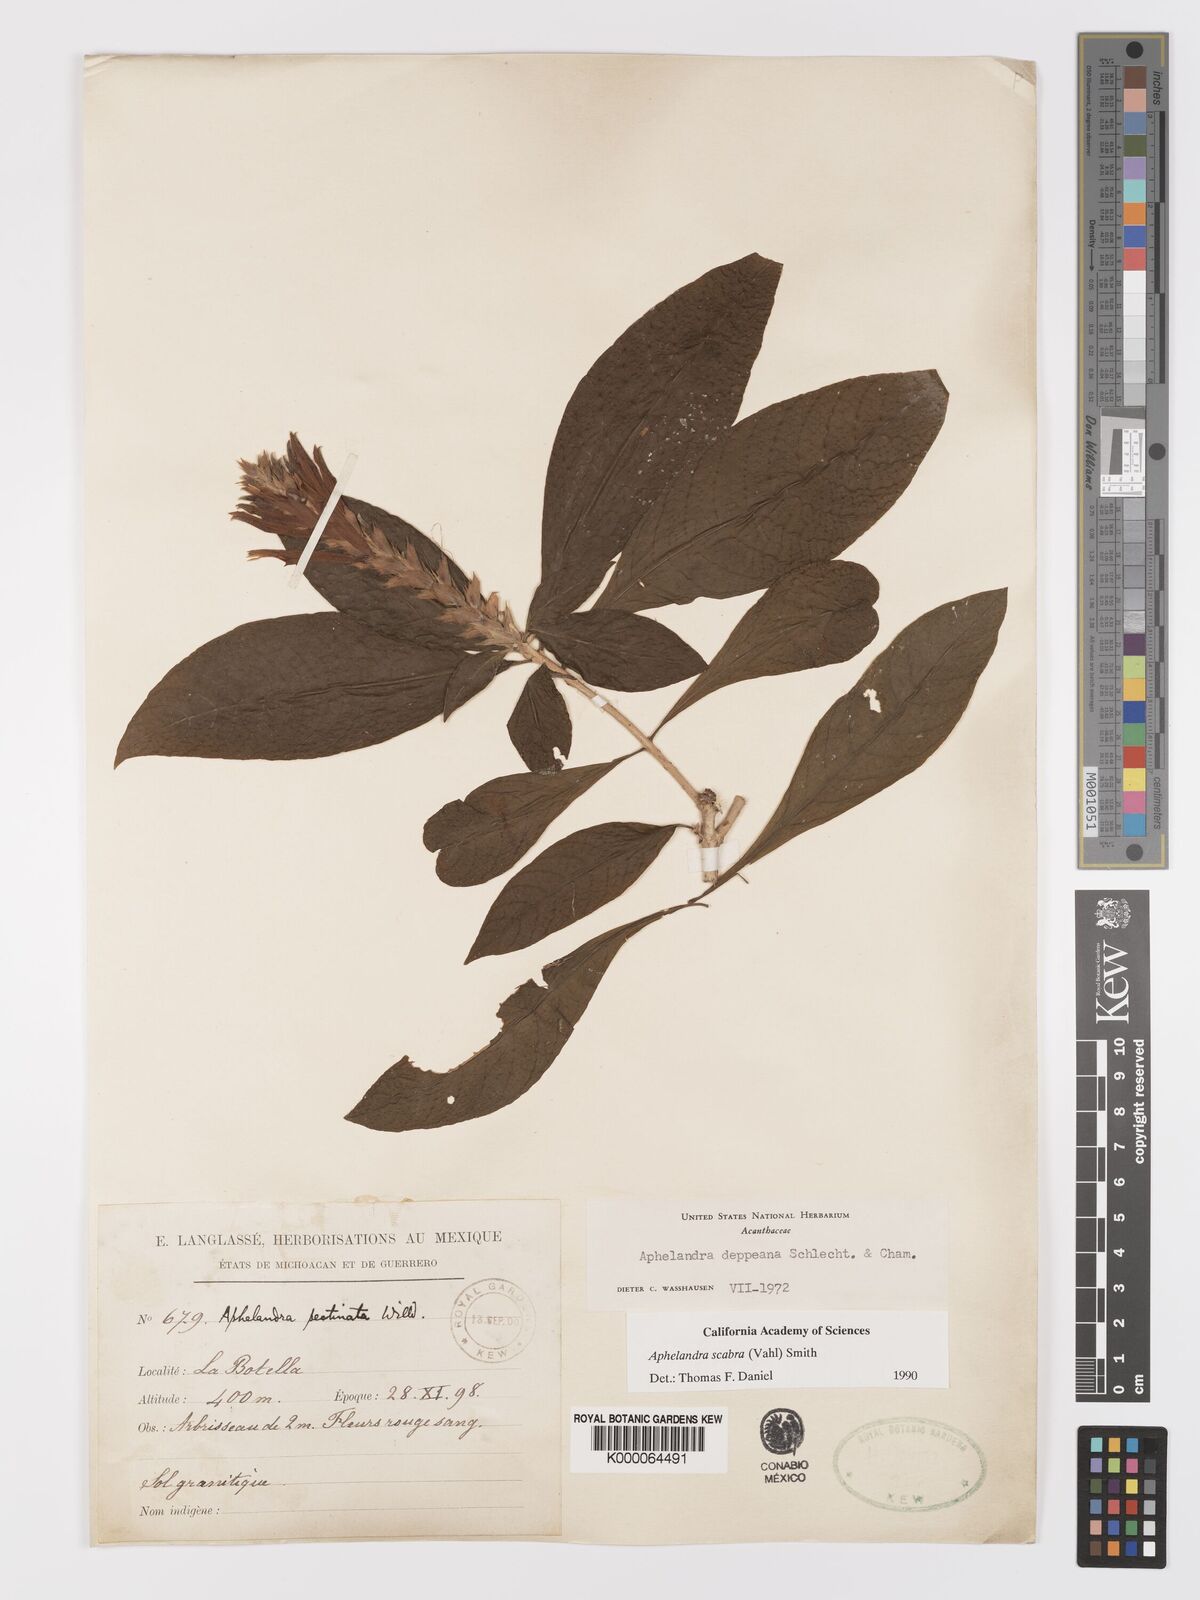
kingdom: Plantae
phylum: Tracheophyta
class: Magnoliopsida
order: Lamiales
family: Acanthaceae
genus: Aphelandra
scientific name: Aphelandra scabra
